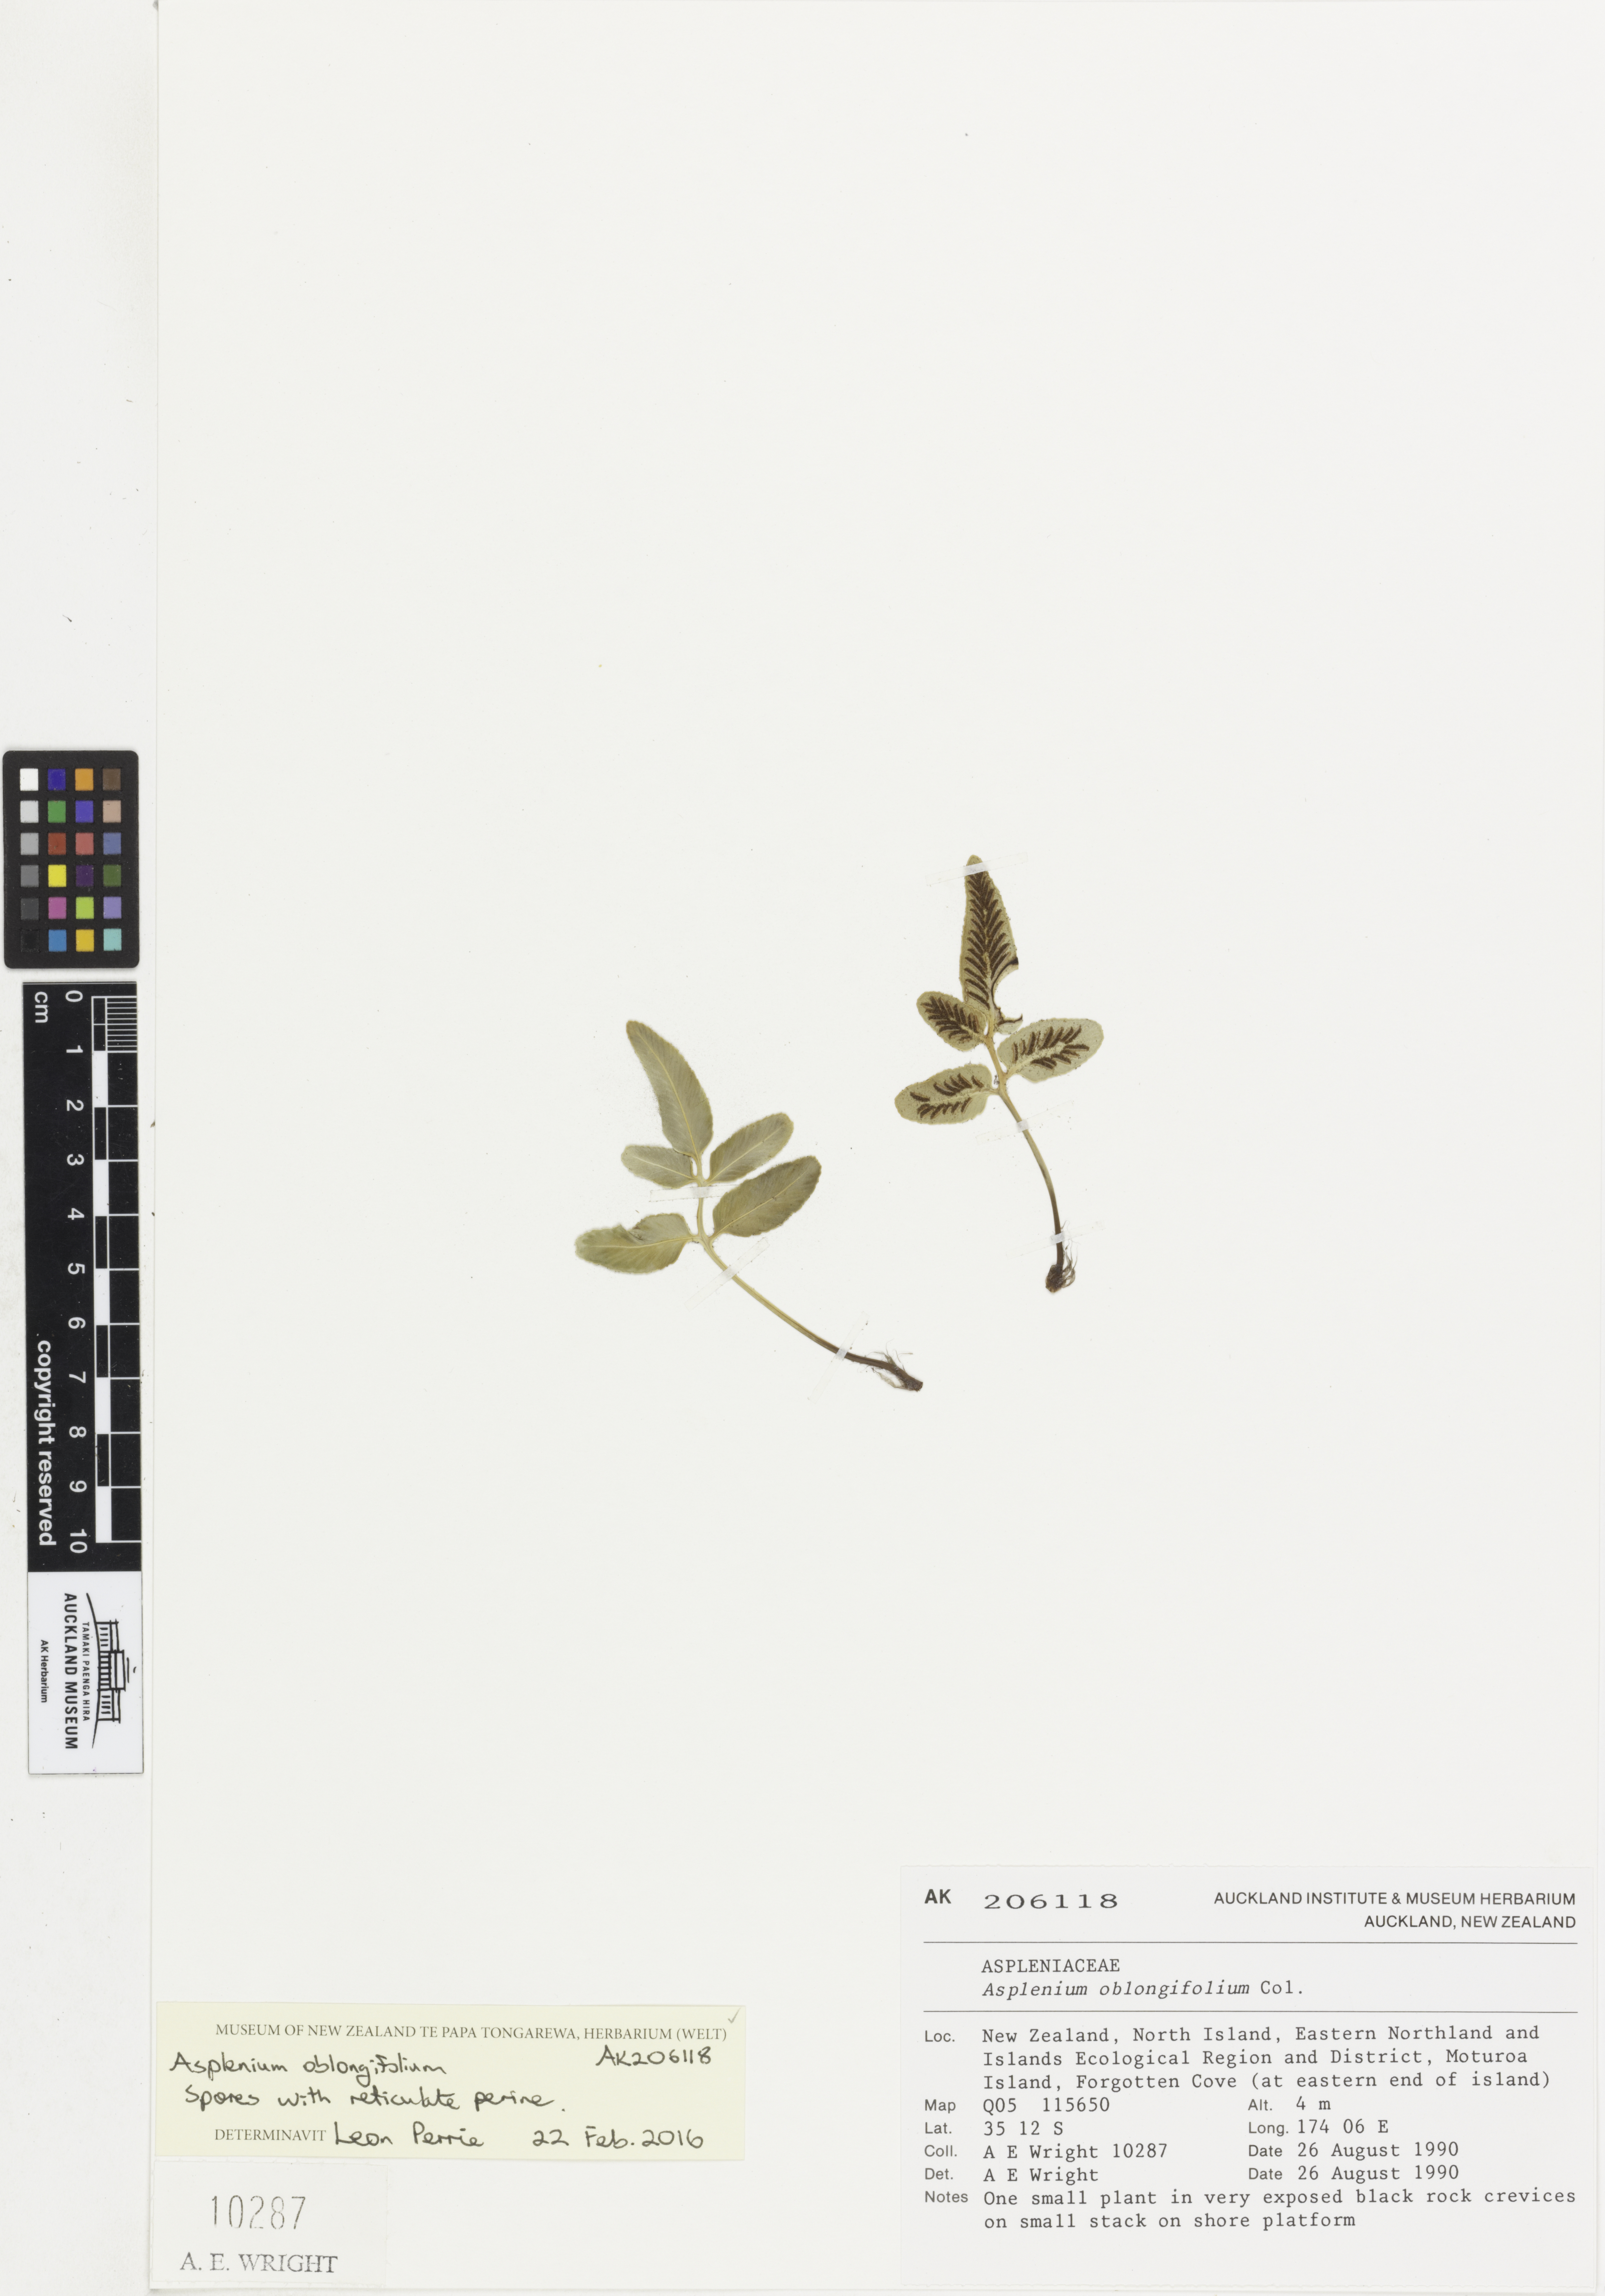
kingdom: Plantae
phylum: Tracheophyta
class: Polypodiopsida
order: Polypodiales
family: Aspleniaceae
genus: Asplenium
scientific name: Asplenium oblongifolium
